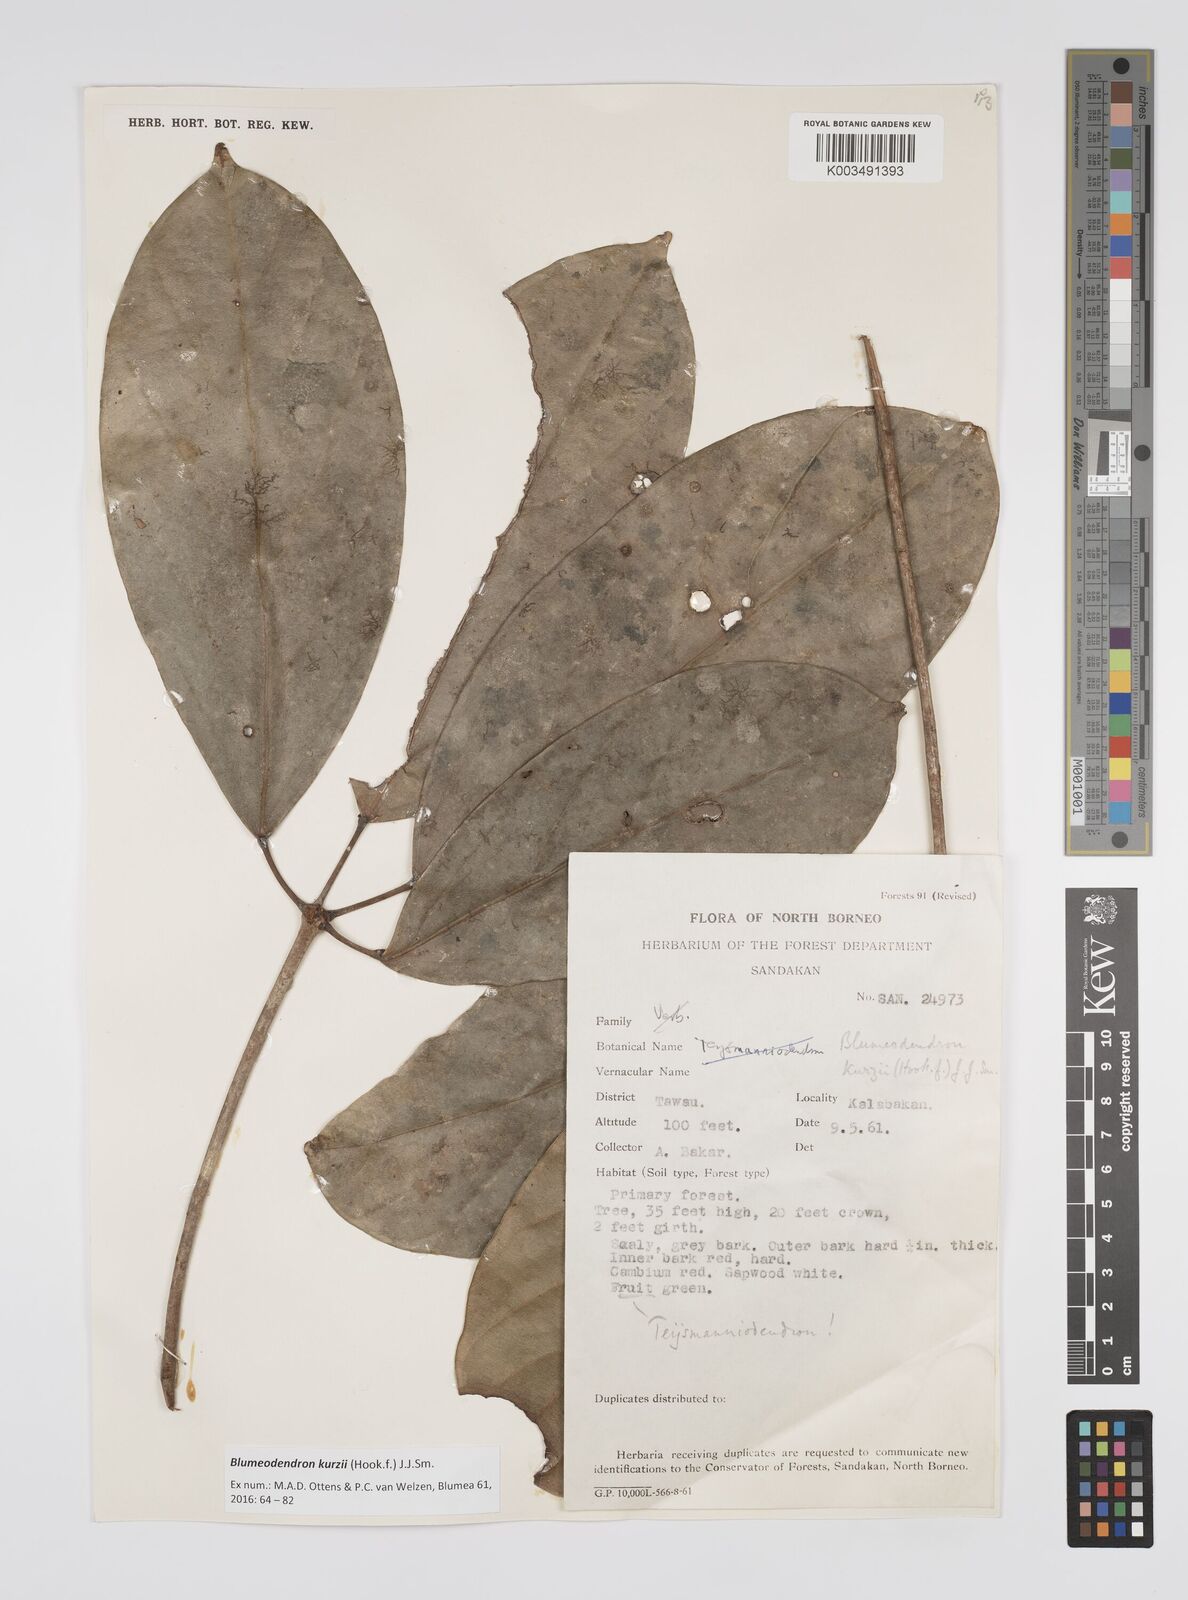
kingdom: Plantae
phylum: Tracheophyta
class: Magnoliopsida
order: Malpighiales
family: Euphorbiaceae
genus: Blumeodendron
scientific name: Blumeodendron kurzii
